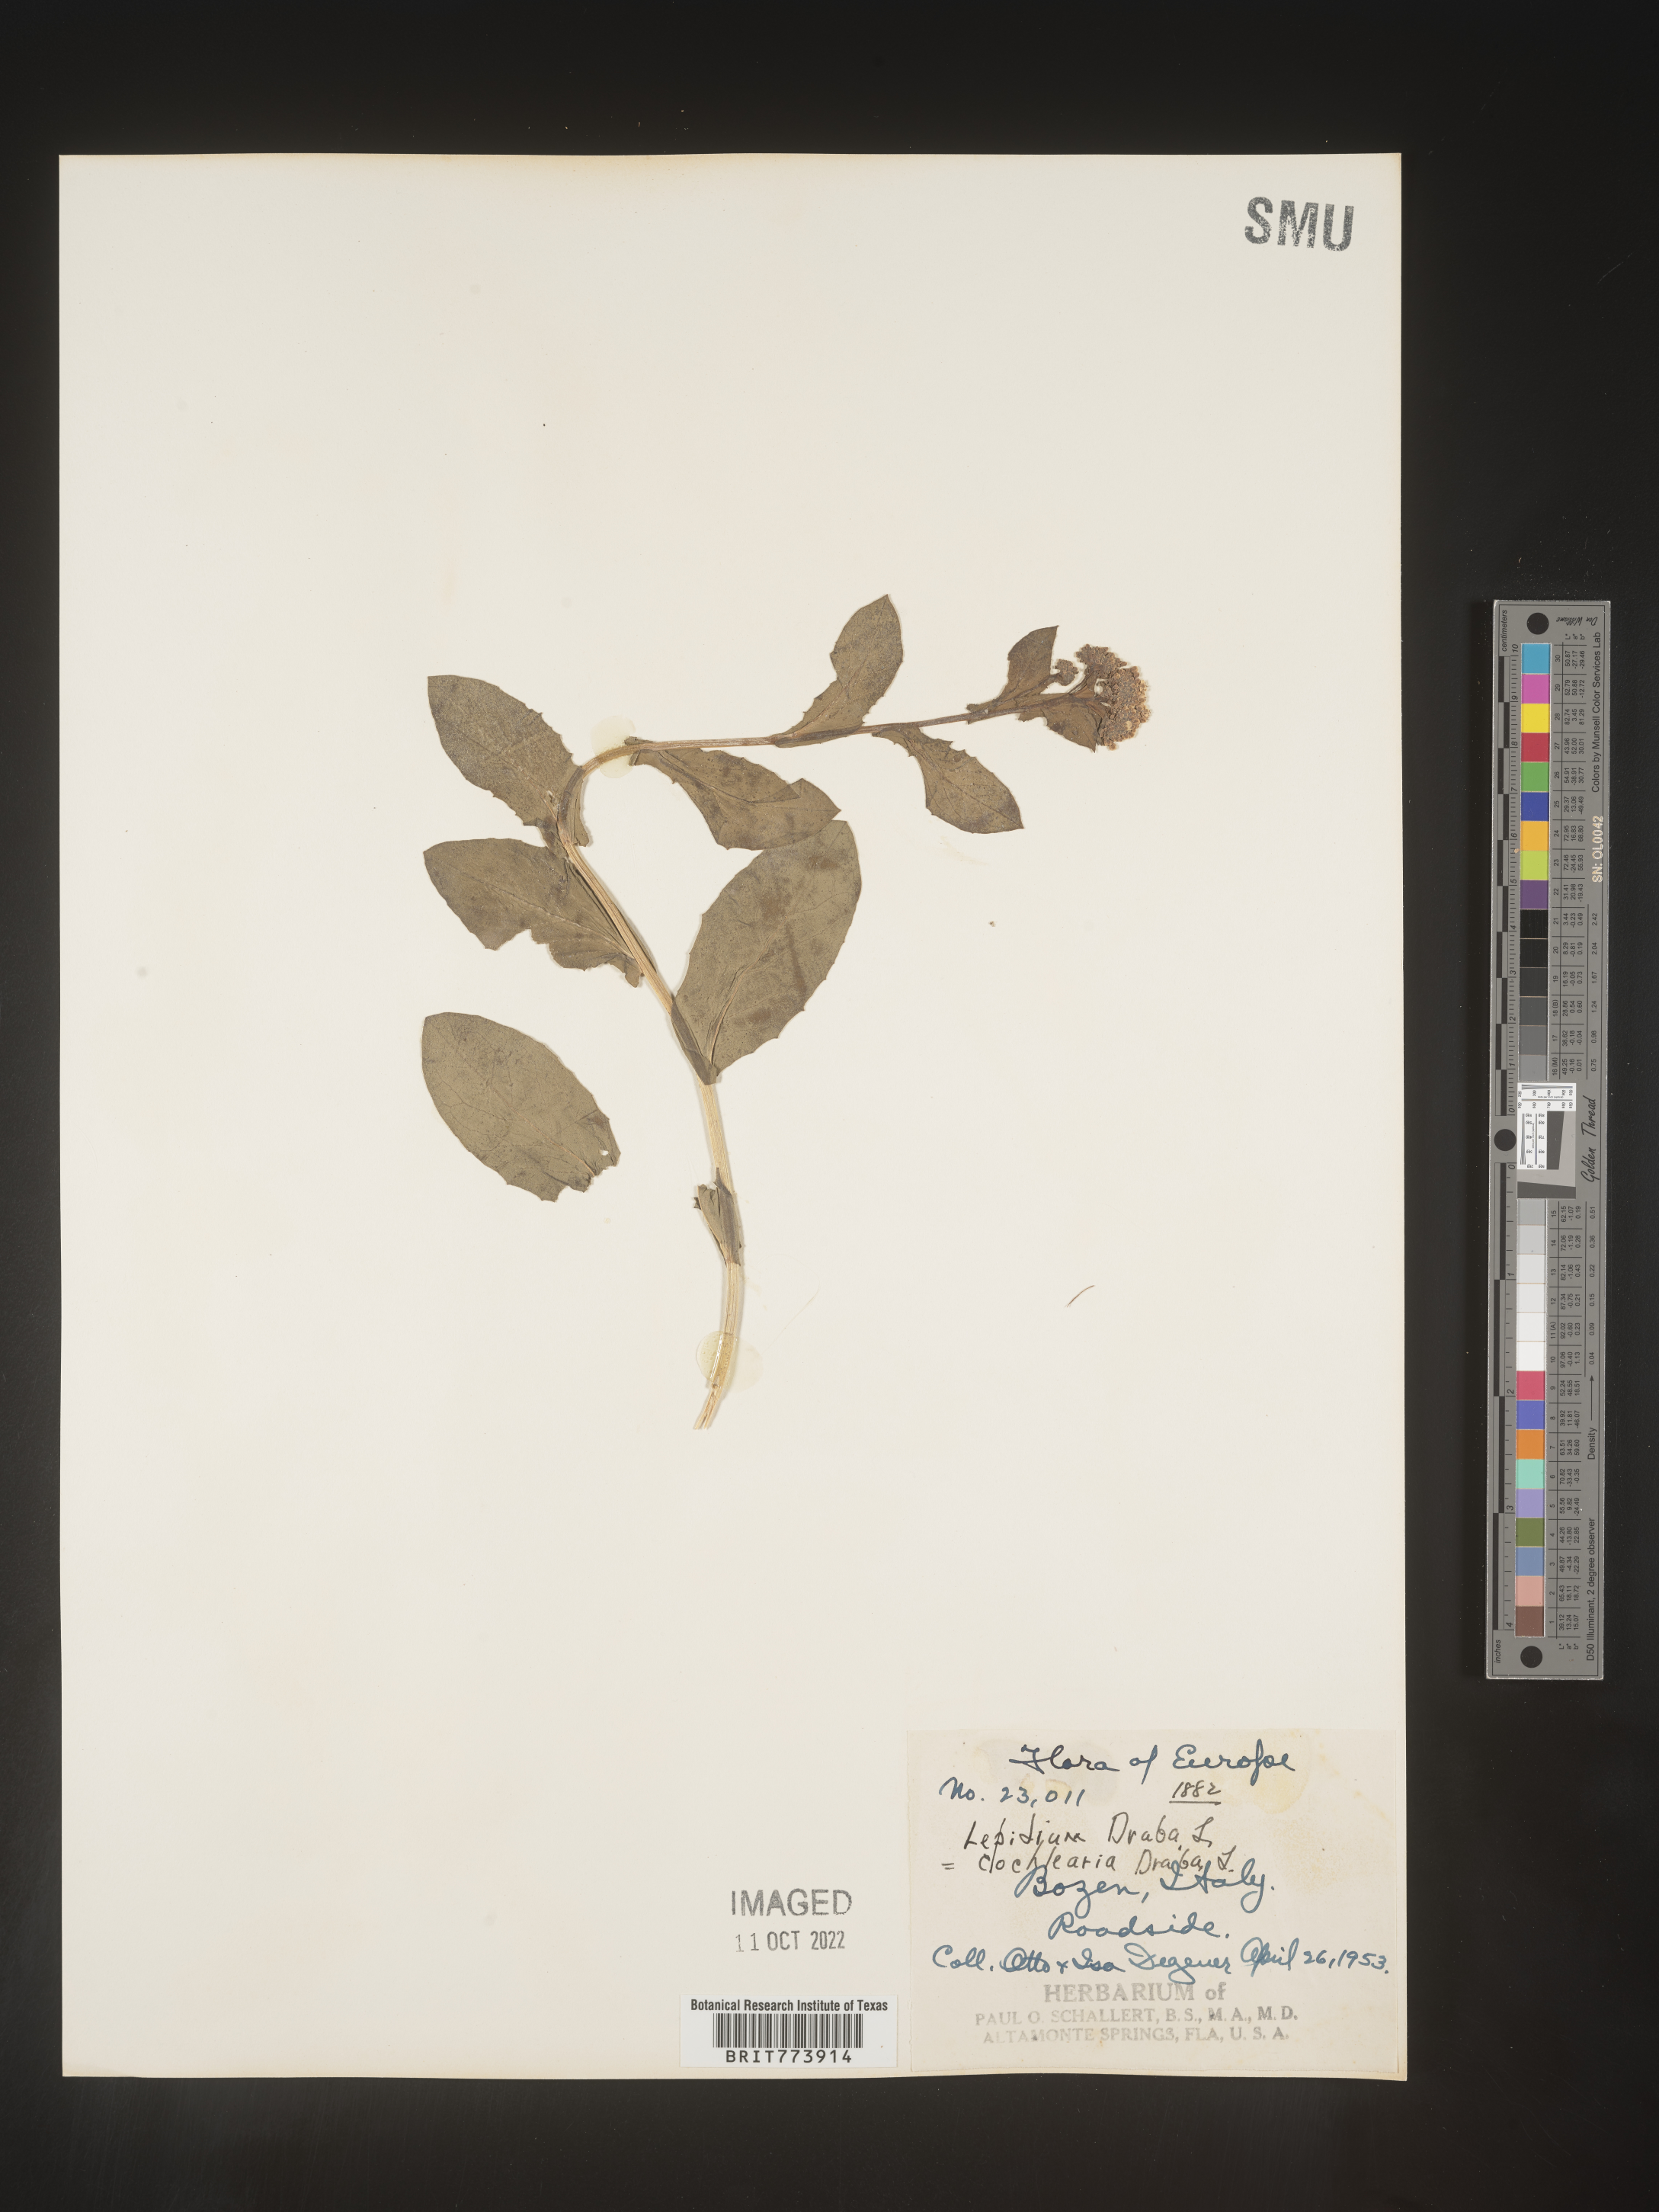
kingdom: Plantae
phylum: Tracheophyta
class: Magnoliopsida
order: Brassicales
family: Brassicaceae
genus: Lepidium
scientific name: Lepidium
